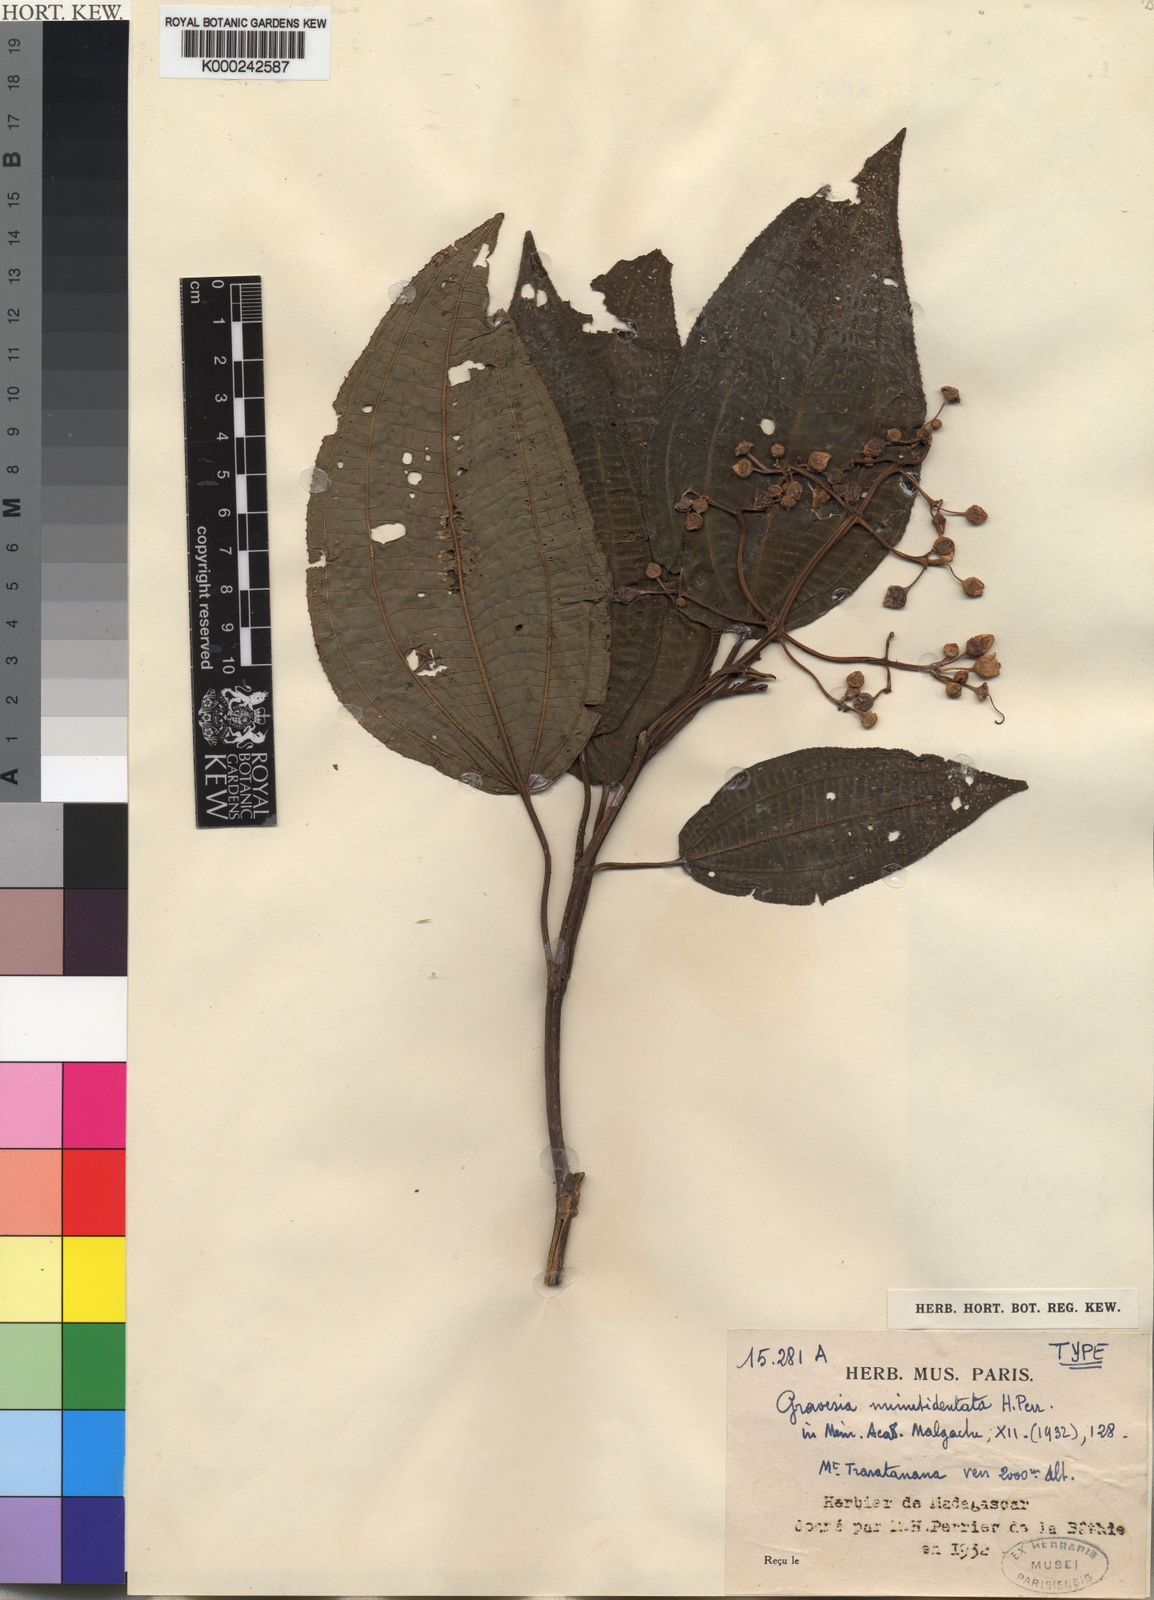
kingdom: Plantae
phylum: Tracheophyta
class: Magnoliopsida
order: Myrtales
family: Melastomataceae
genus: Gravesia
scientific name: Gravesia minutidentata
